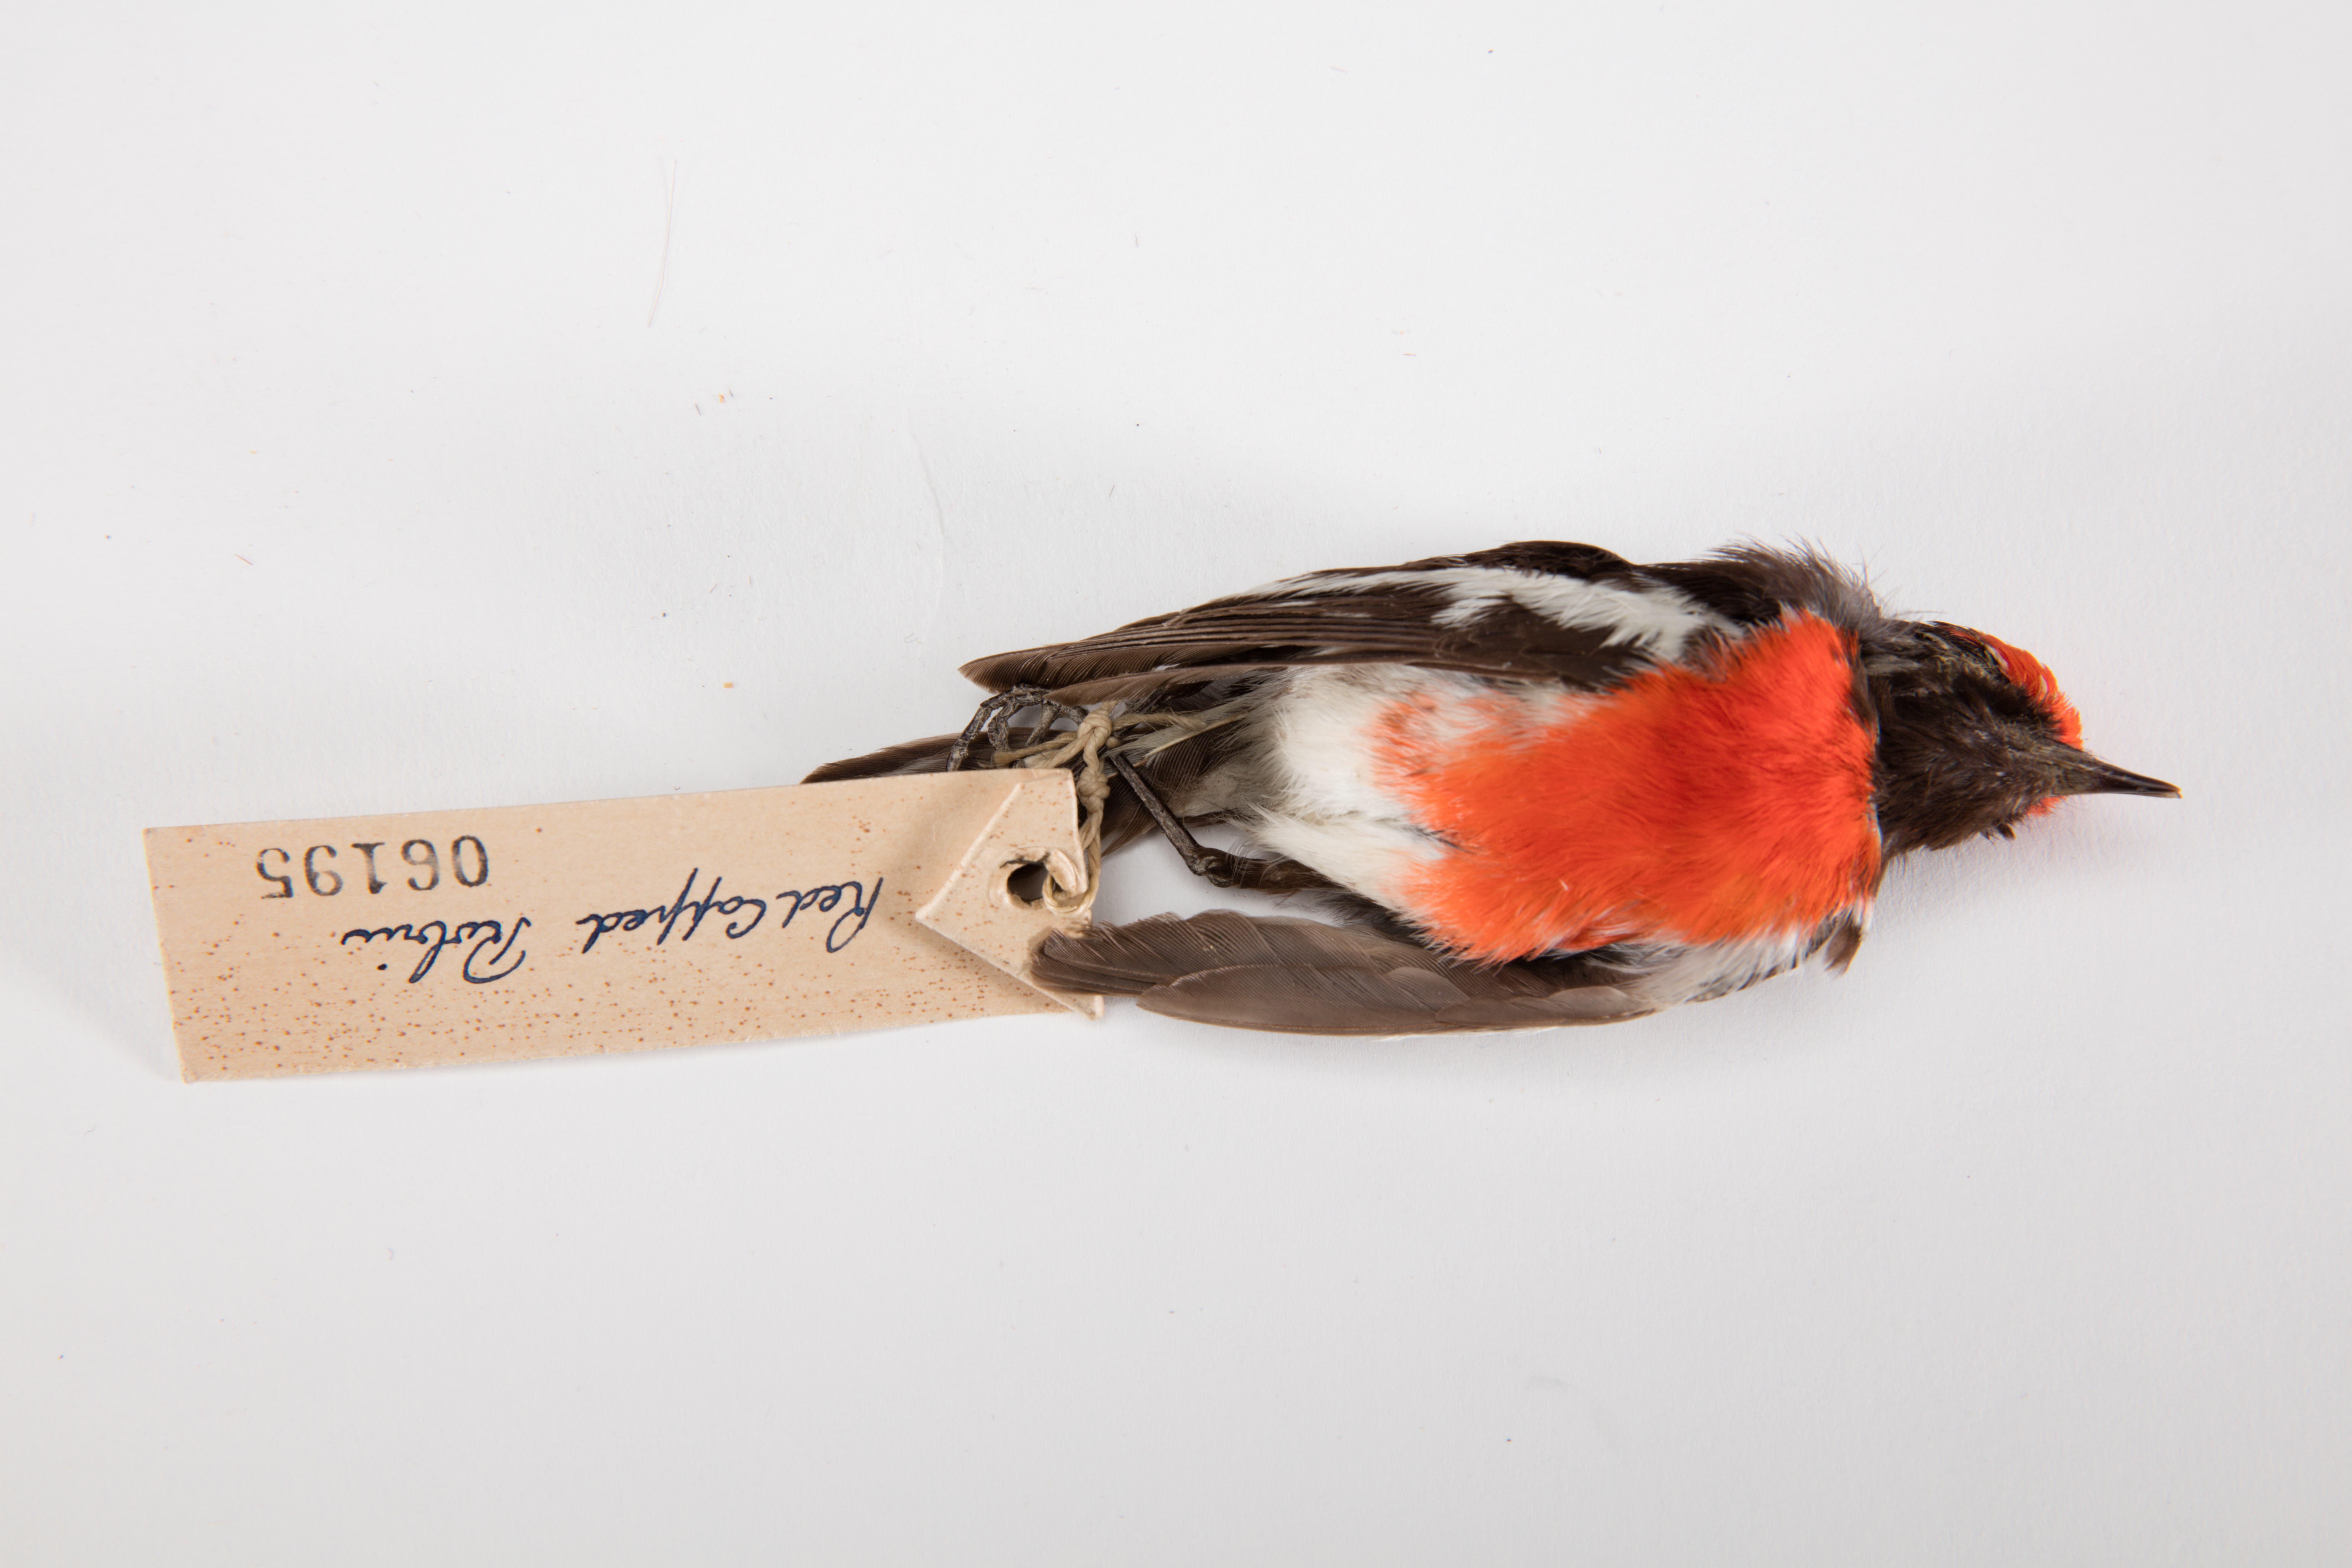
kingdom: Animalia
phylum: Chordata
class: Aves
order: Passeriformes
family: Petroicidae
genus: Petroica
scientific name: Petroica goodenovii
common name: Red-capped robin
